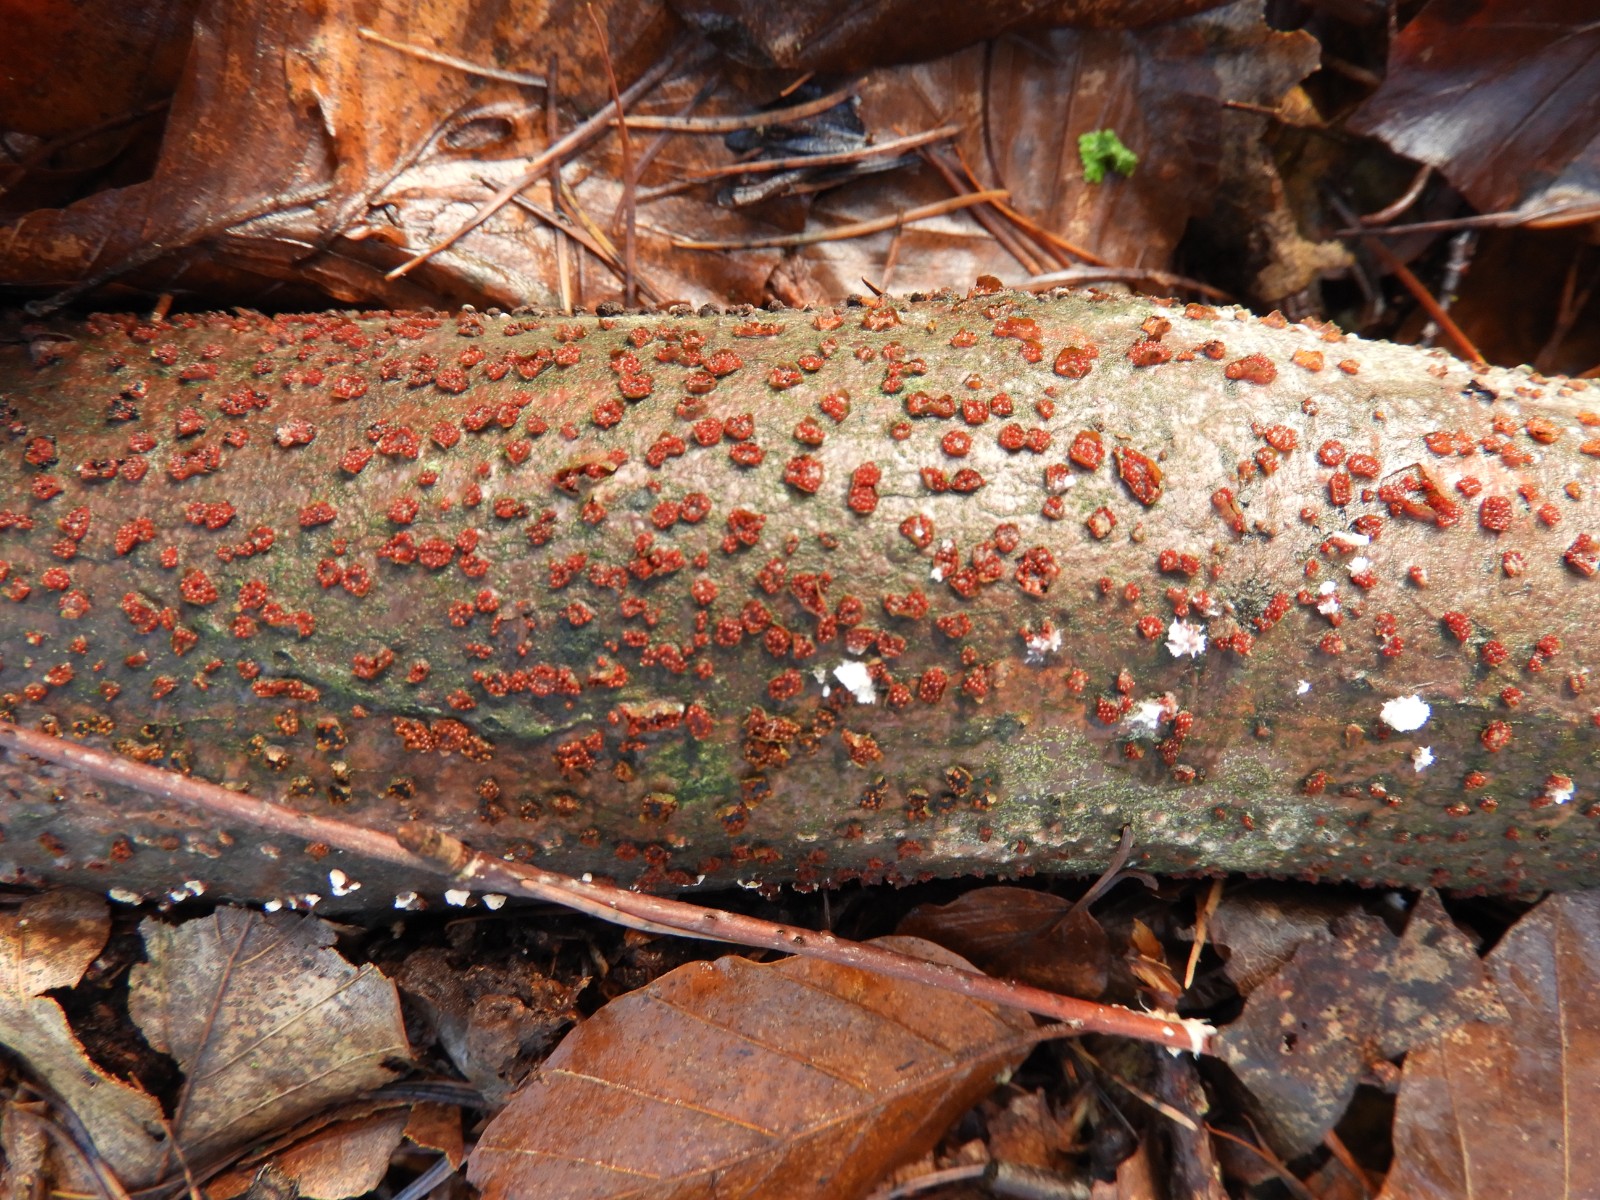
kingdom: Fungi
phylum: Ascomycota
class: Sordariomycetes
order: Hypocreales
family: Nectriaceae
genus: Nectria
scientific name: Nectria cinnabarina
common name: almindelig cinnobersvamp
